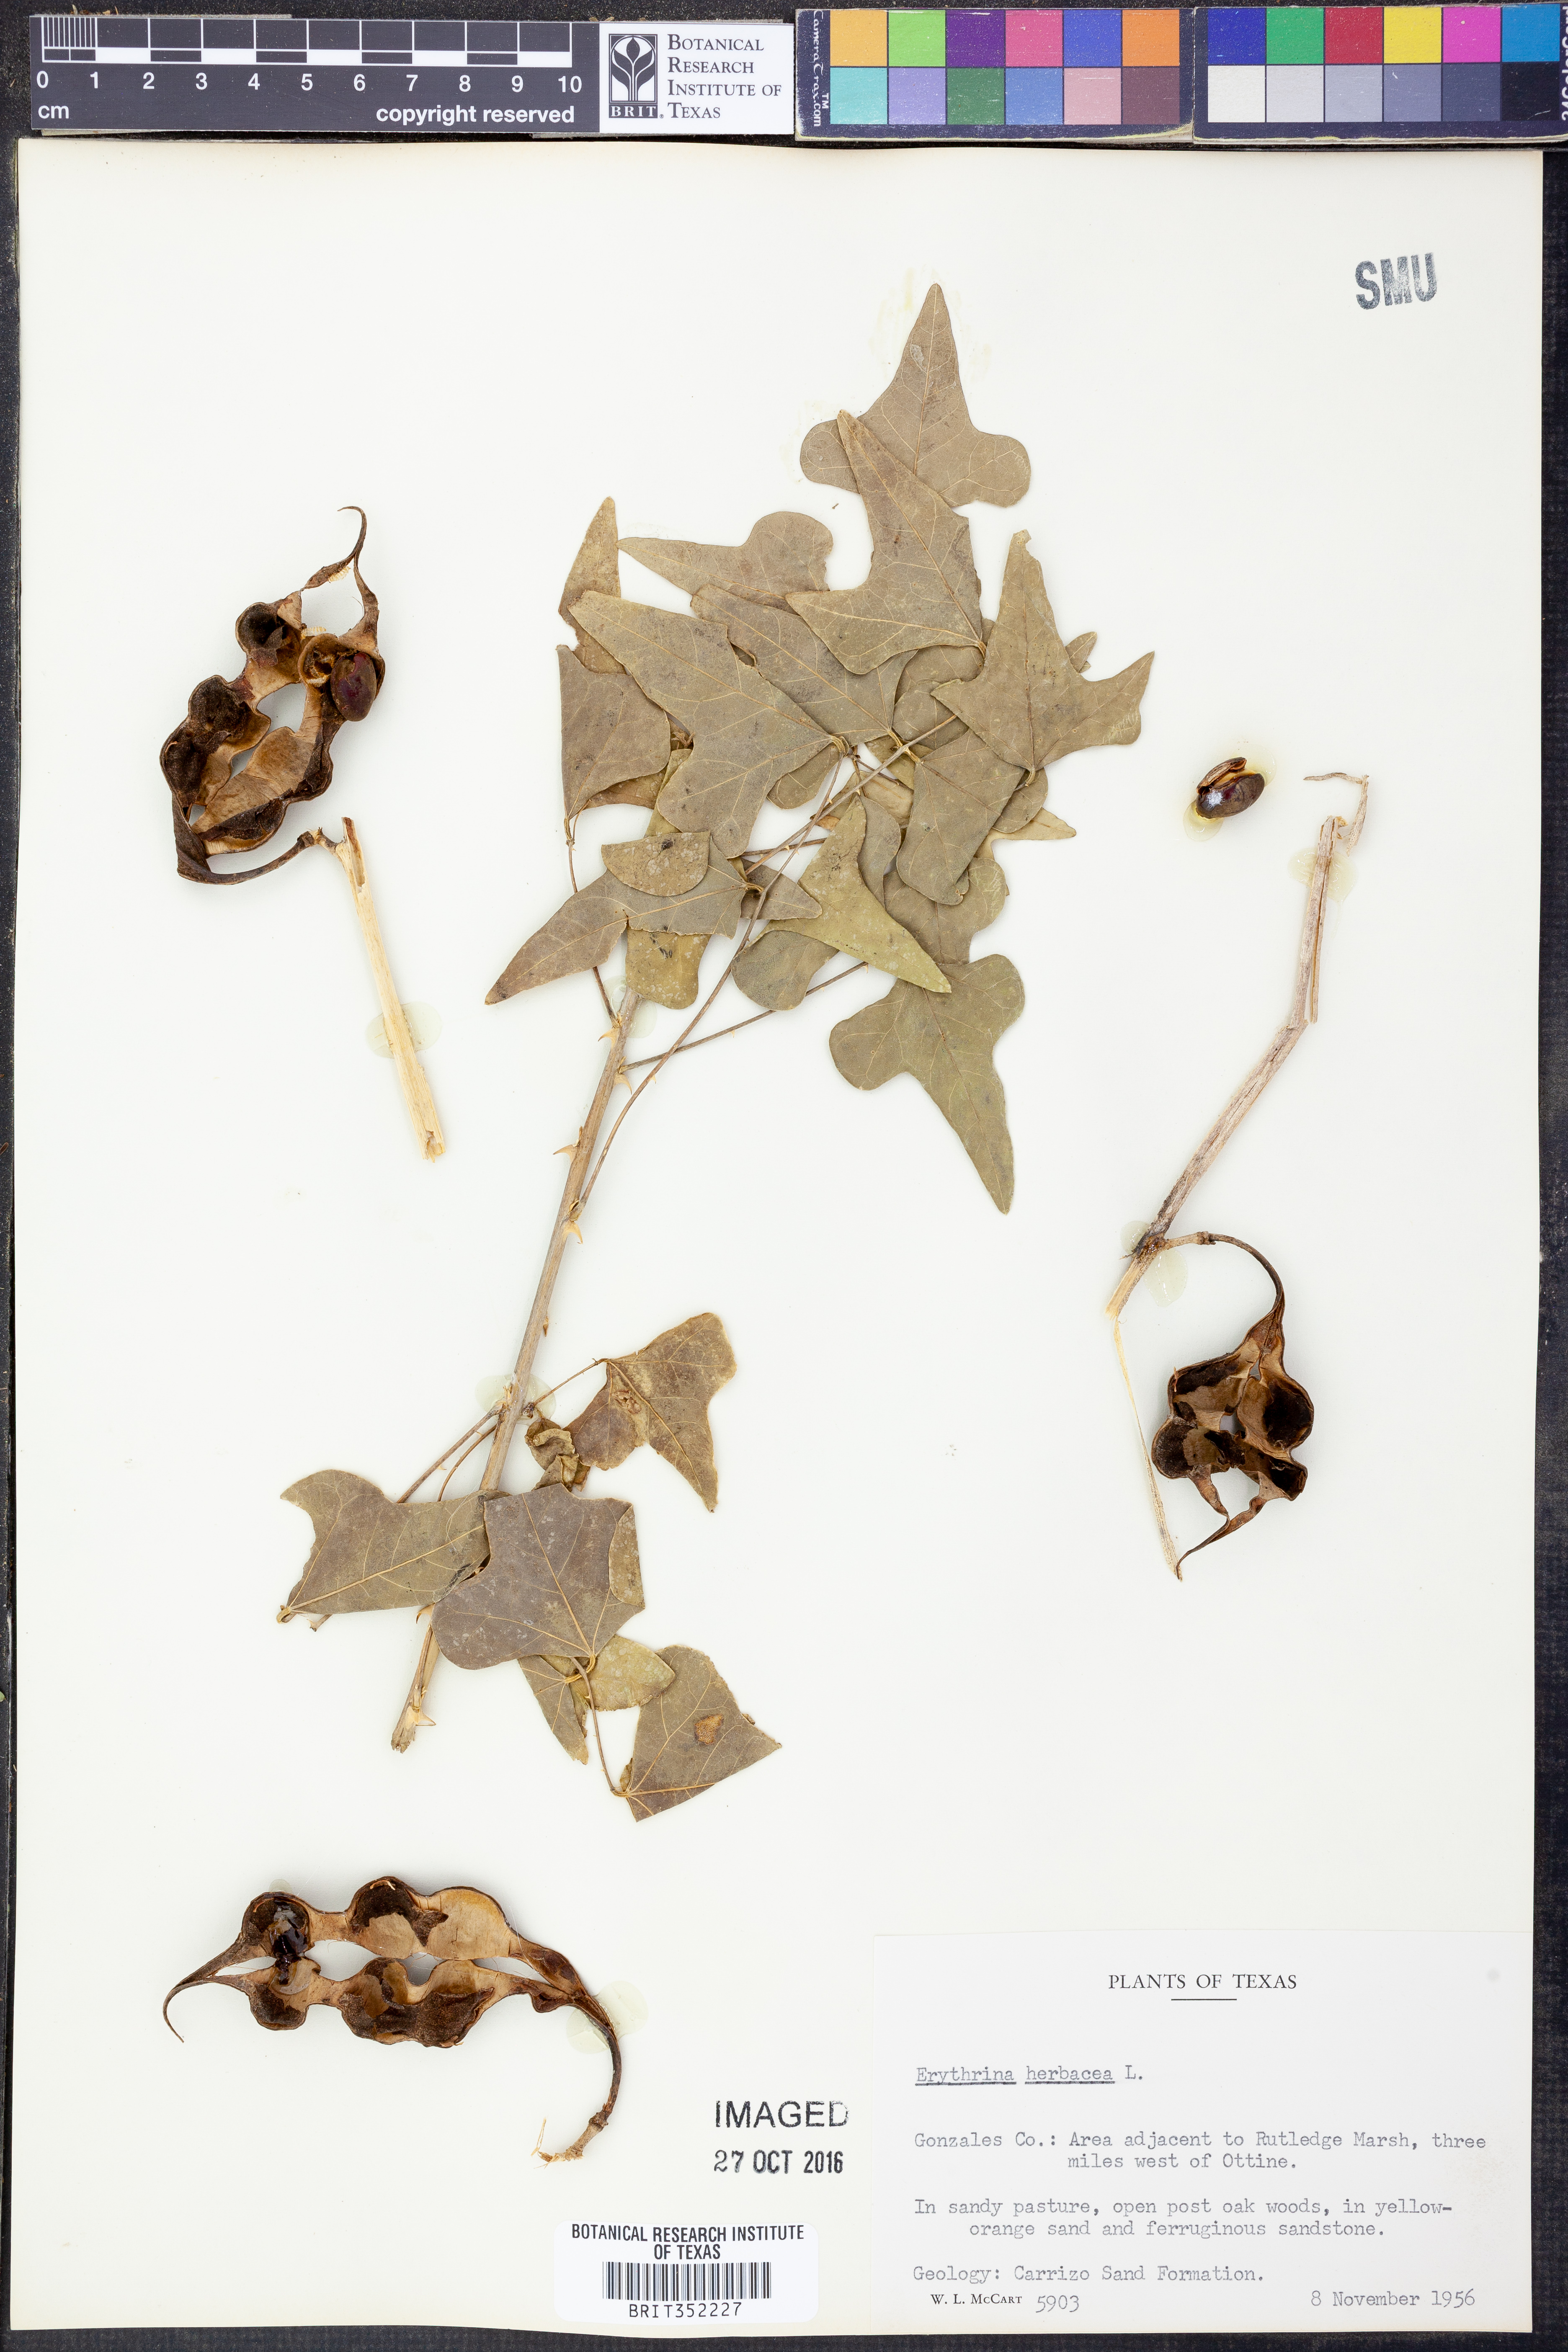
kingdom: Plantae
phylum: Tracheophyta
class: Magnoliopsida
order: Fabales
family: Fabaceae
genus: Erythrina
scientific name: Erythrina herbacea
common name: Coral-bean
